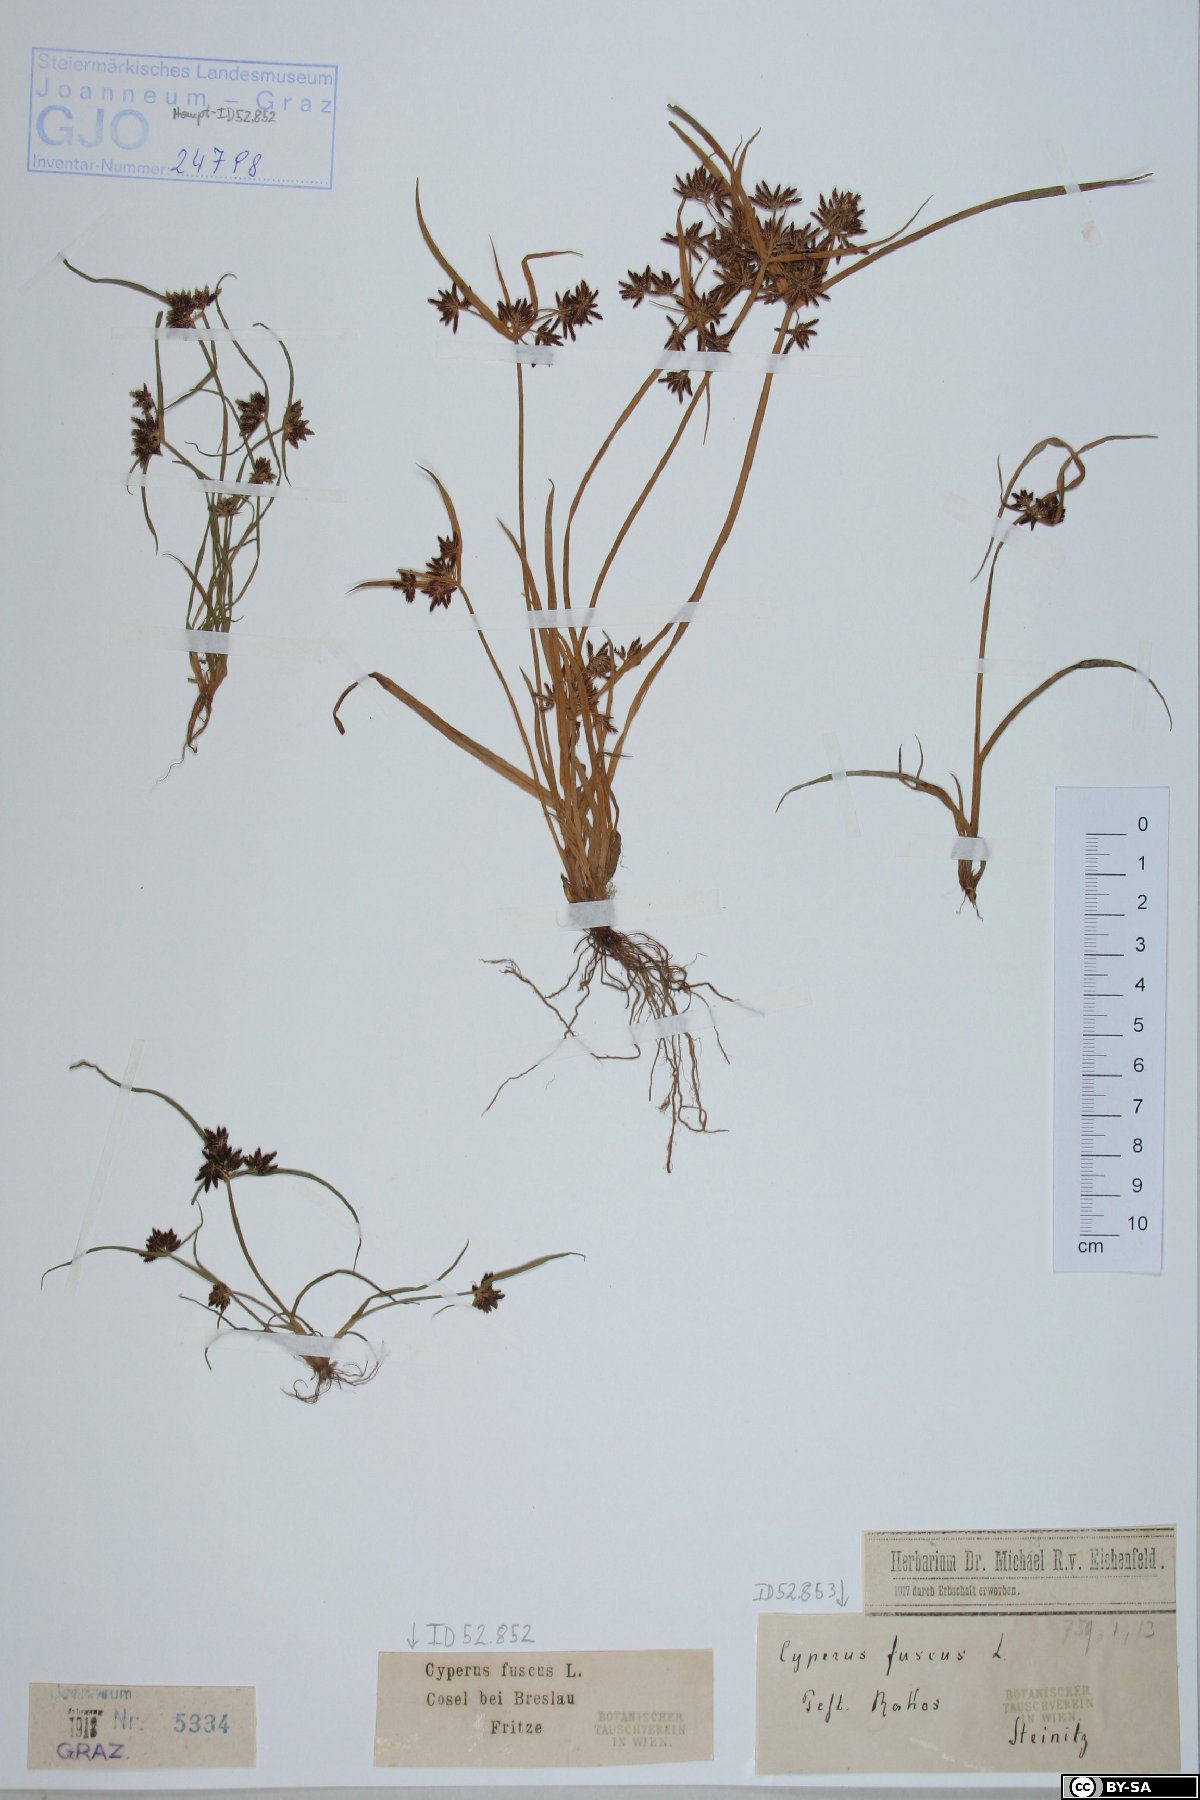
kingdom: Plantae
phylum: Tracheophyta
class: Liliopsida
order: Poales
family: Cyperaceae
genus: Cyperus
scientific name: Cyperus fuscus
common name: Brown galingale
